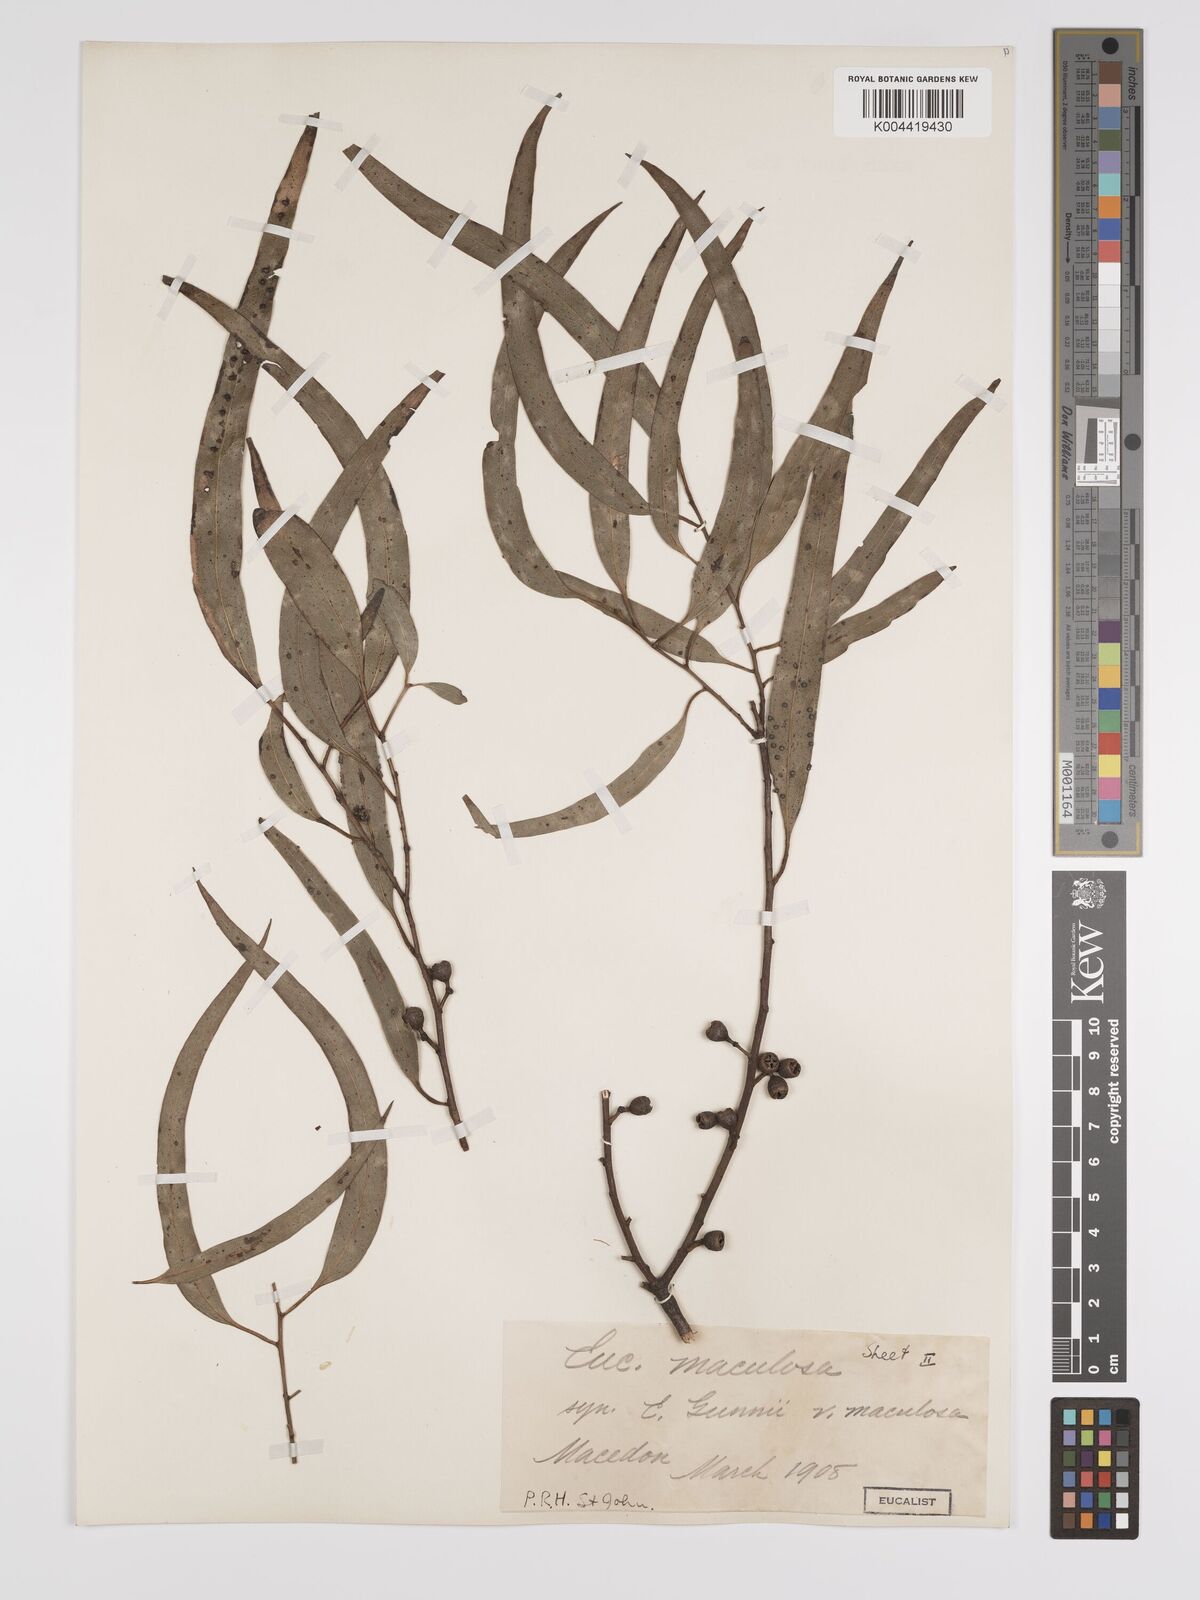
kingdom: Plantae
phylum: Tracheophyta
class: Magnoliopsida
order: Myrtales
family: Myrtaceae
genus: Eucalyptus
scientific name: Eucalyptus mannifera
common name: Manna gum
